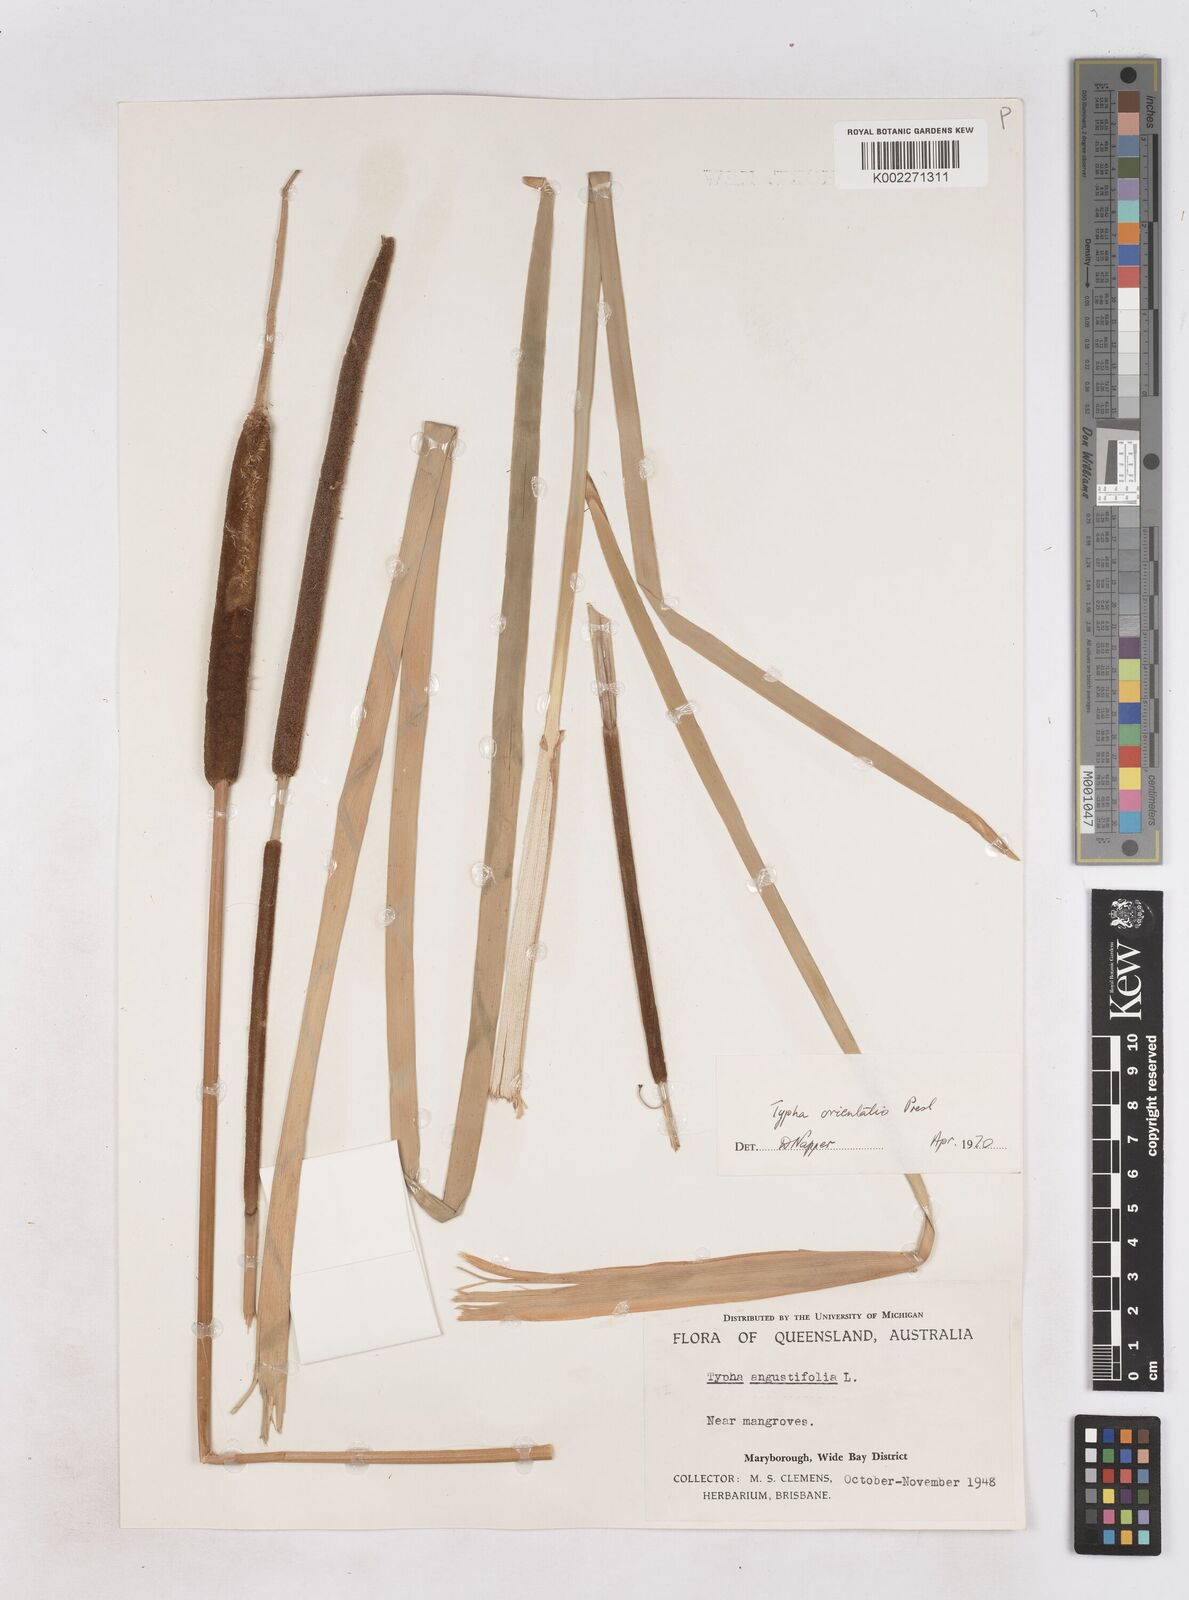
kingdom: Plantae
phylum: Tracheophyta
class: Liliopsida
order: Poales
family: Typhaceae
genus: Typha
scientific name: Typha orientalis
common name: Bullrush
